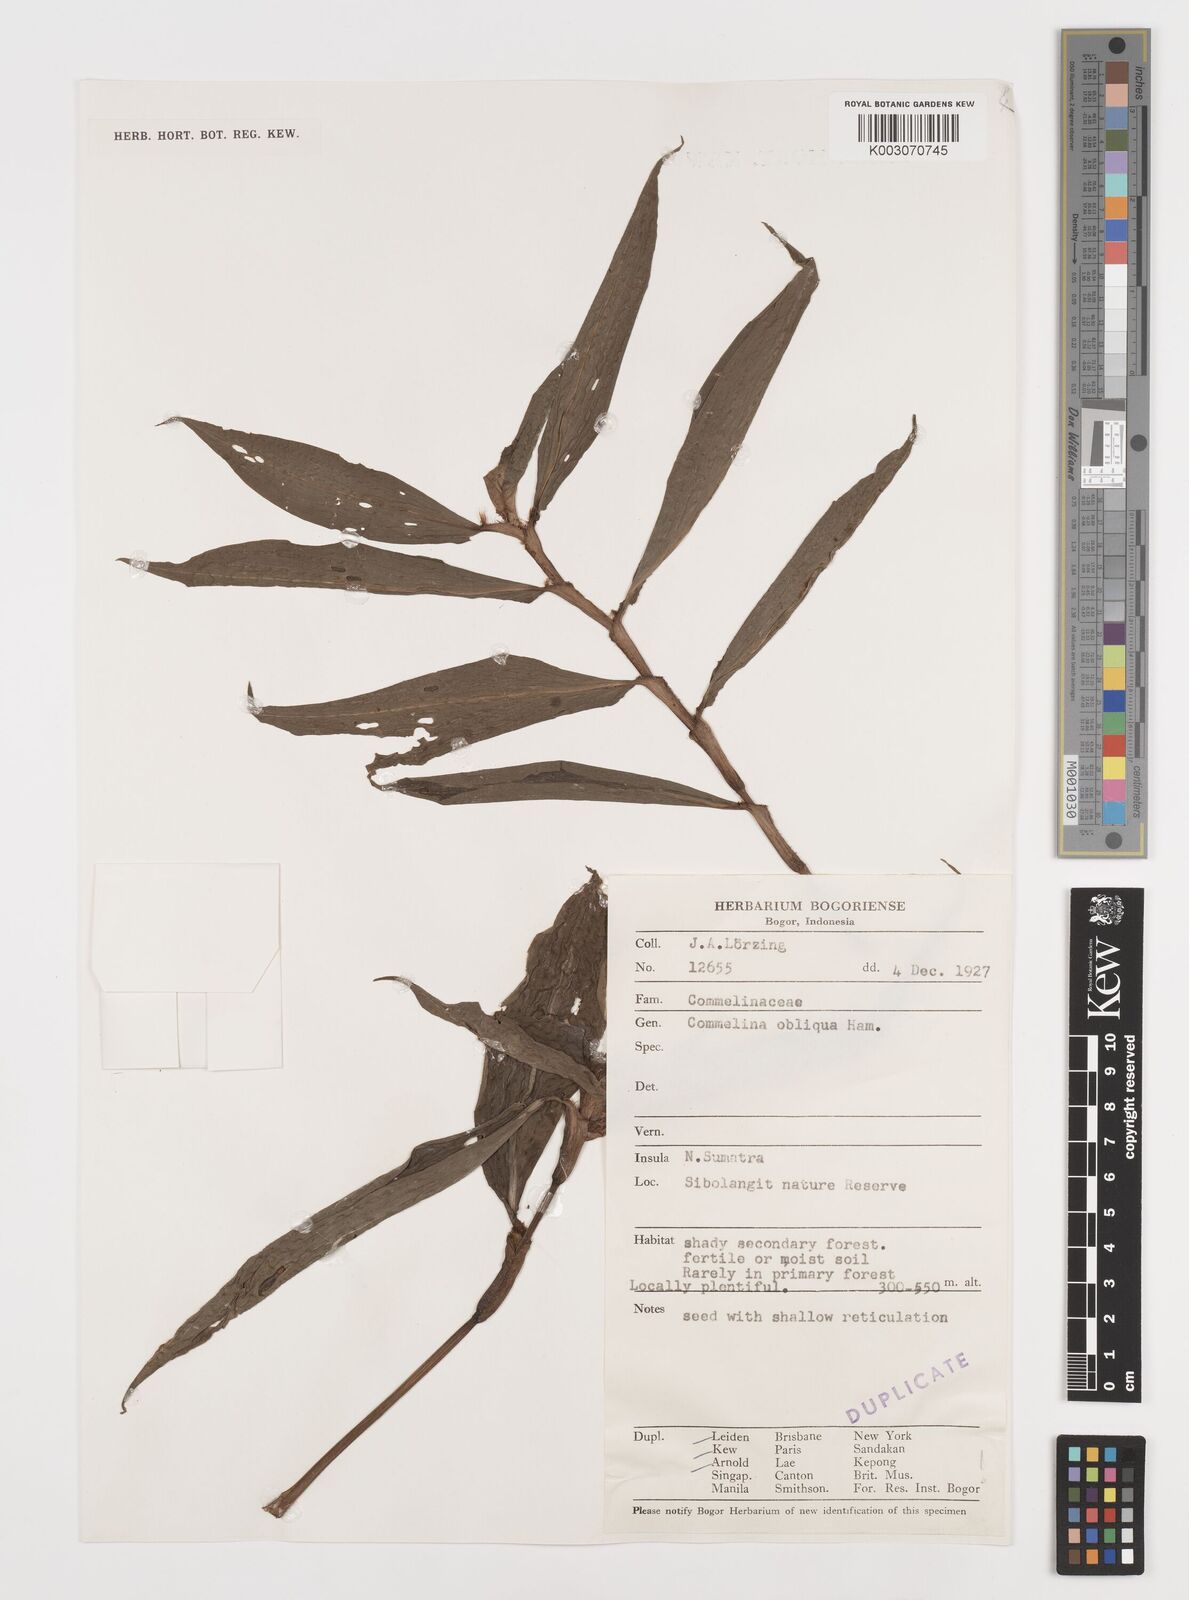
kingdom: Plantae
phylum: Tracheophyta
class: Liliopsida
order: Commelinales
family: Commelinaceae
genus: Commelina
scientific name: Commelina paludosa
